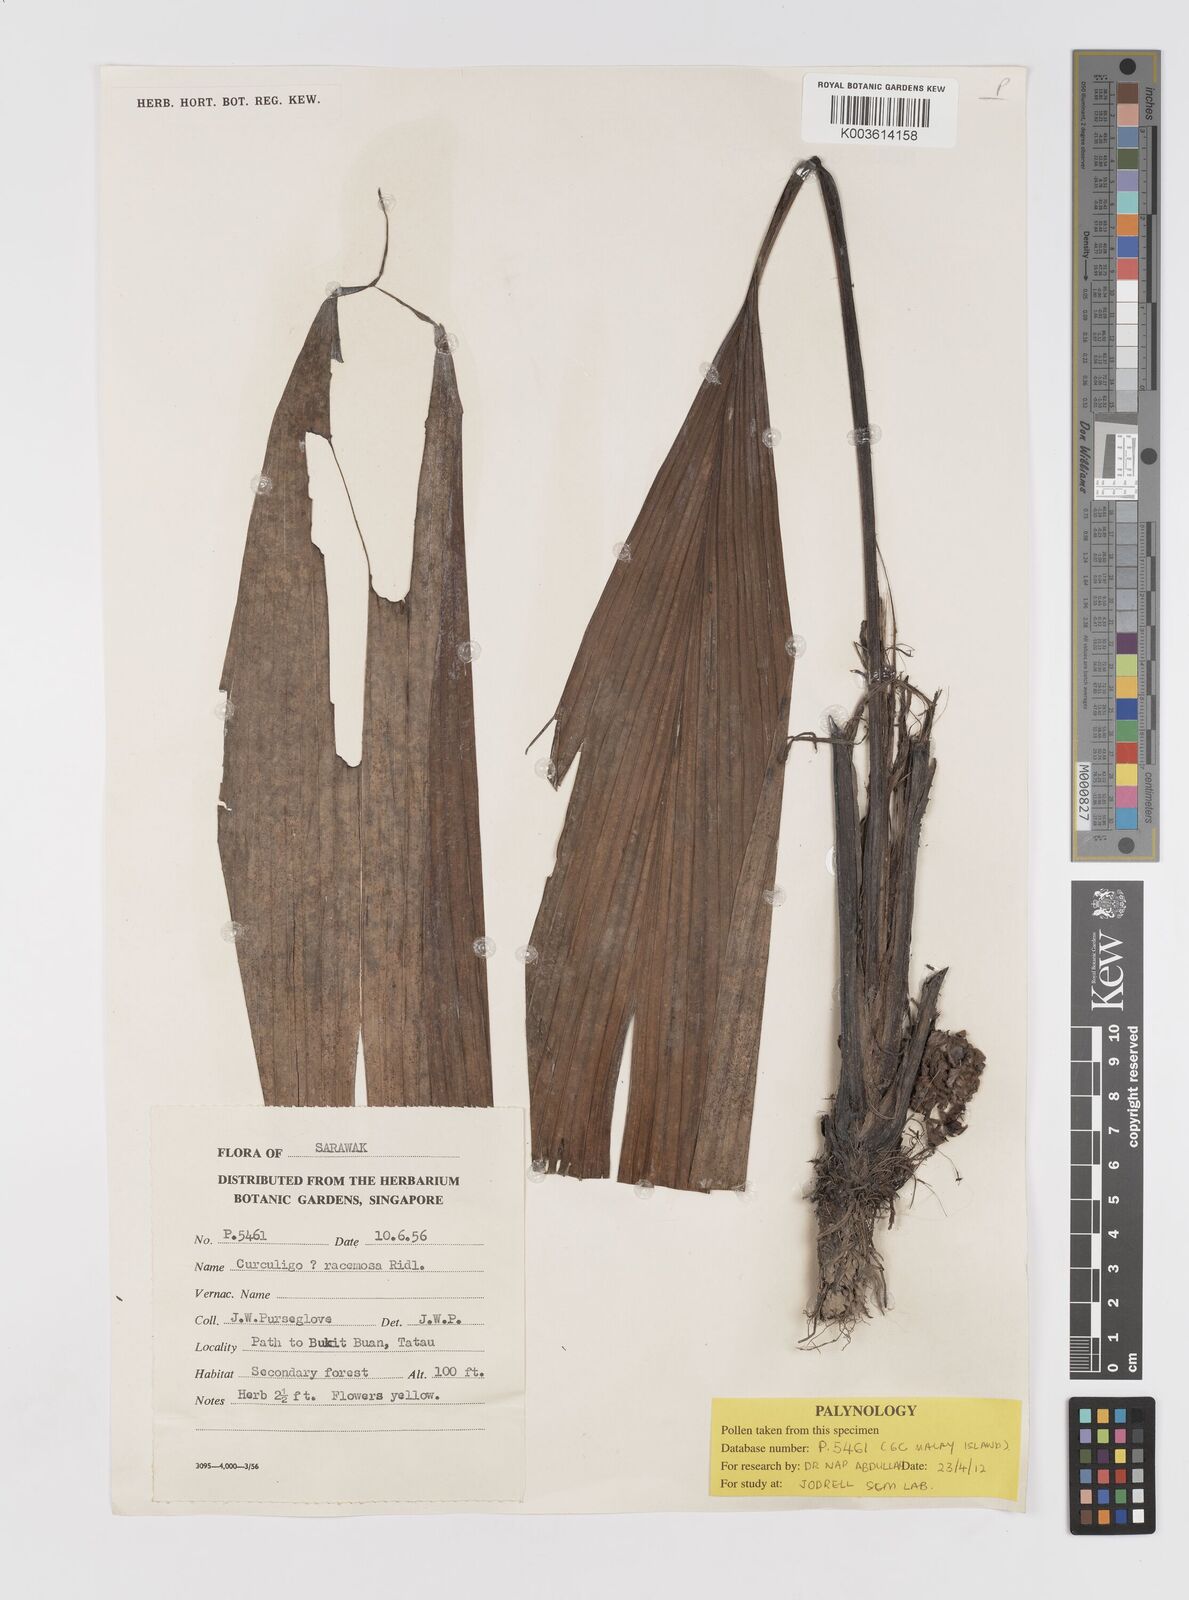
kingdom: Plantae
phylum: Tracheophyta
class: Liliopsida
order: Asparagales
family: Hypoxidaceae
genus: Curculigo
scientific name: Curculigo racemosa
